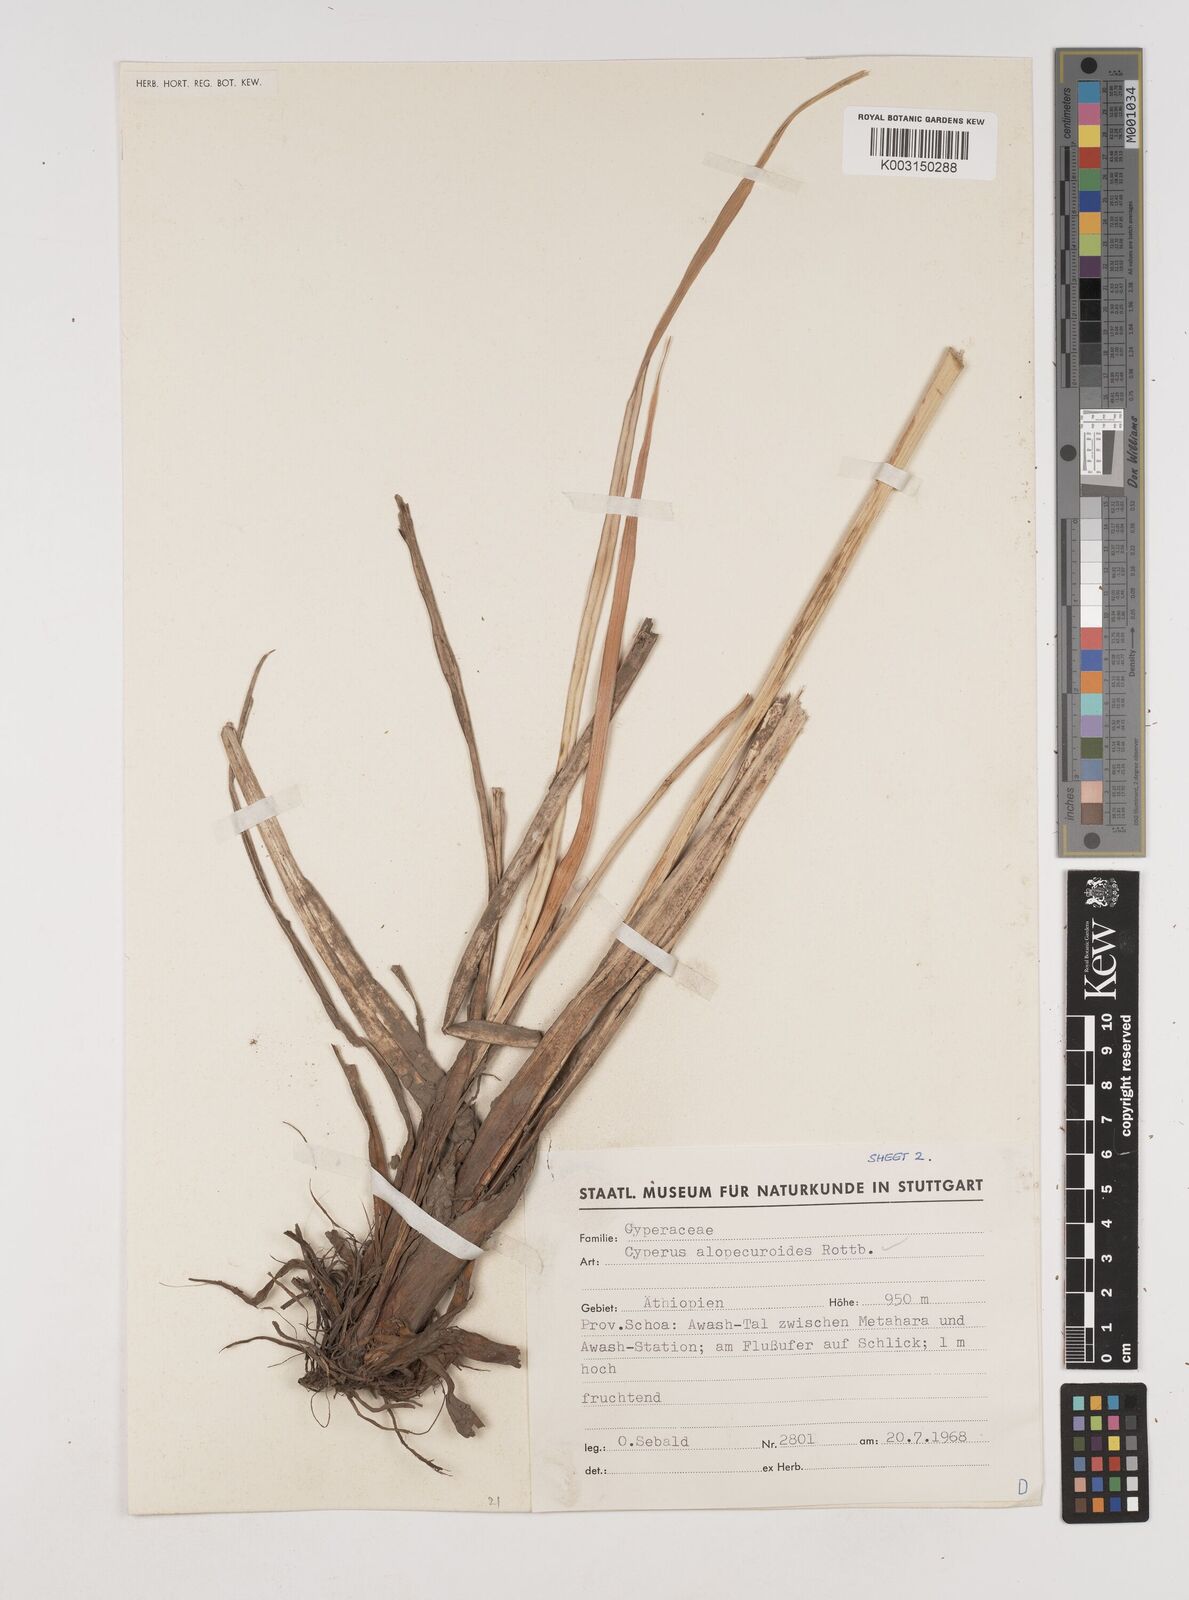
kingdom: Plantae
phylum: Tracheophyta
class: Liliopsida
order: Poales
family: Cyperaceae
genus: Cyperus
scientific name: Cyperus alopecuroides
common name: Foxtail flatsedge
